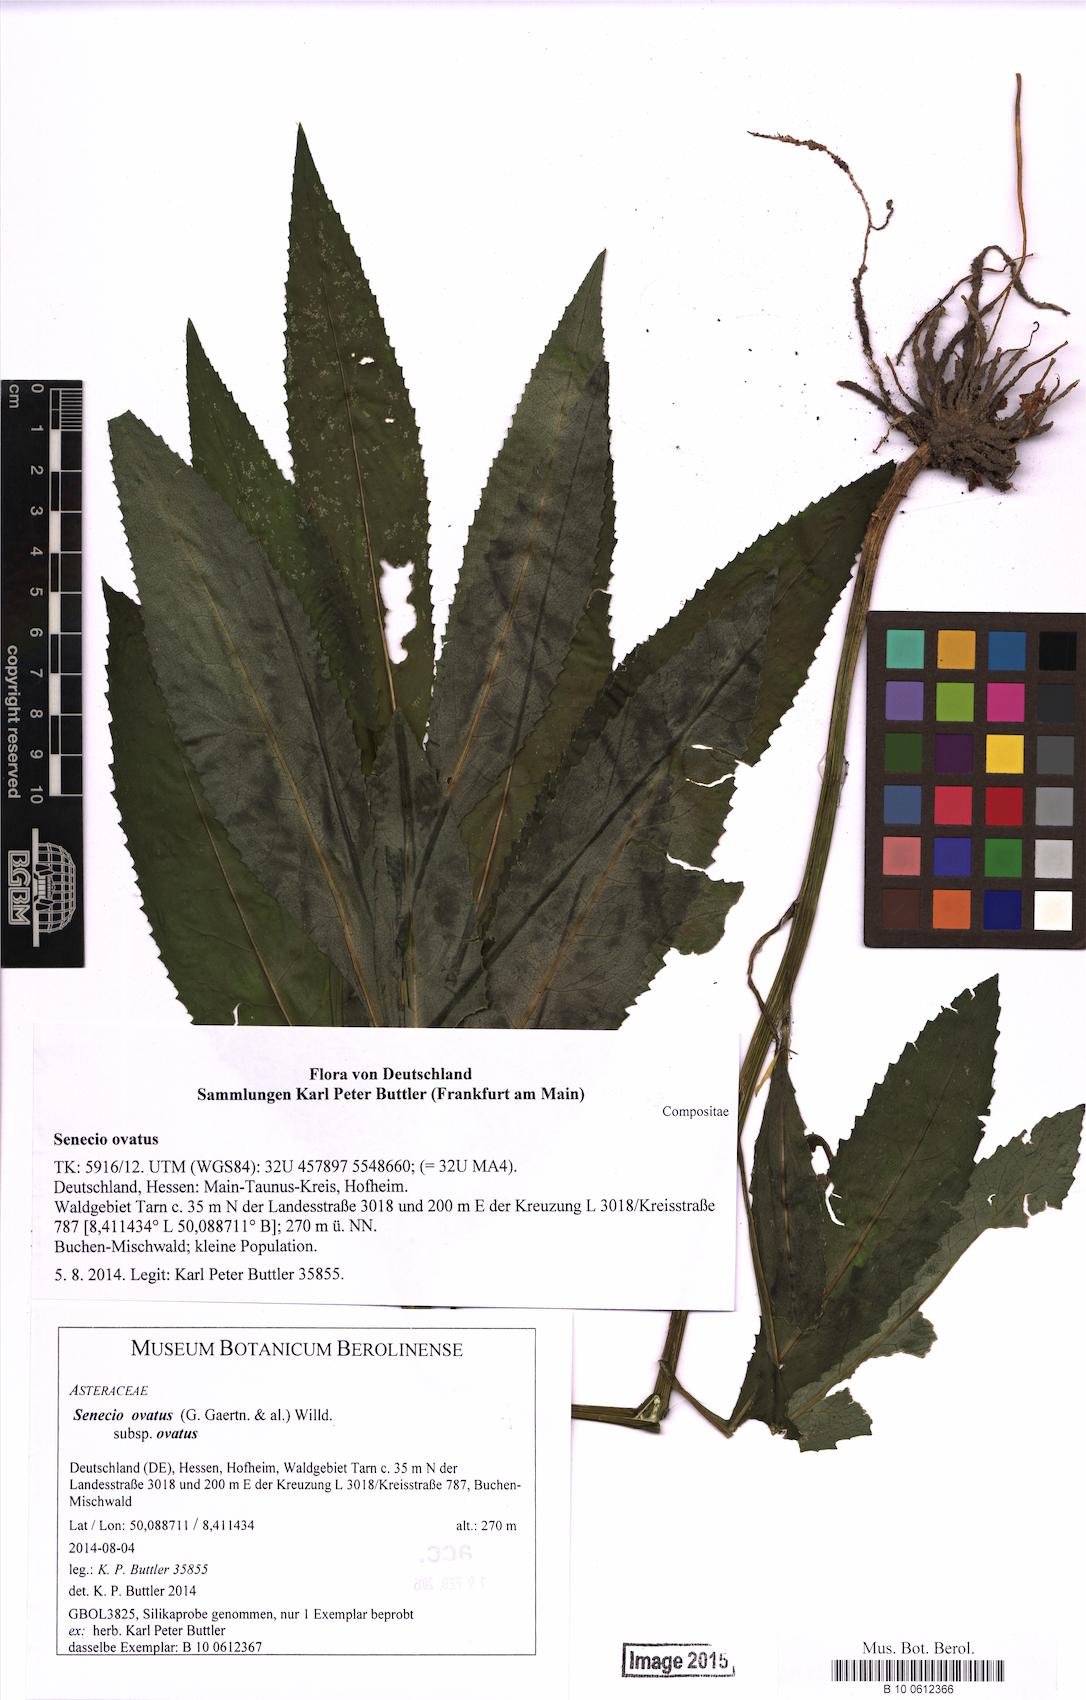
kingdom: Plantae
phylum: Tracheophyta
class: Magnoliopsida
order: Asterales
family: Asteraceae
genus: Senecio
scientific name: Senecio ovatus
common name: Wood ragwort
